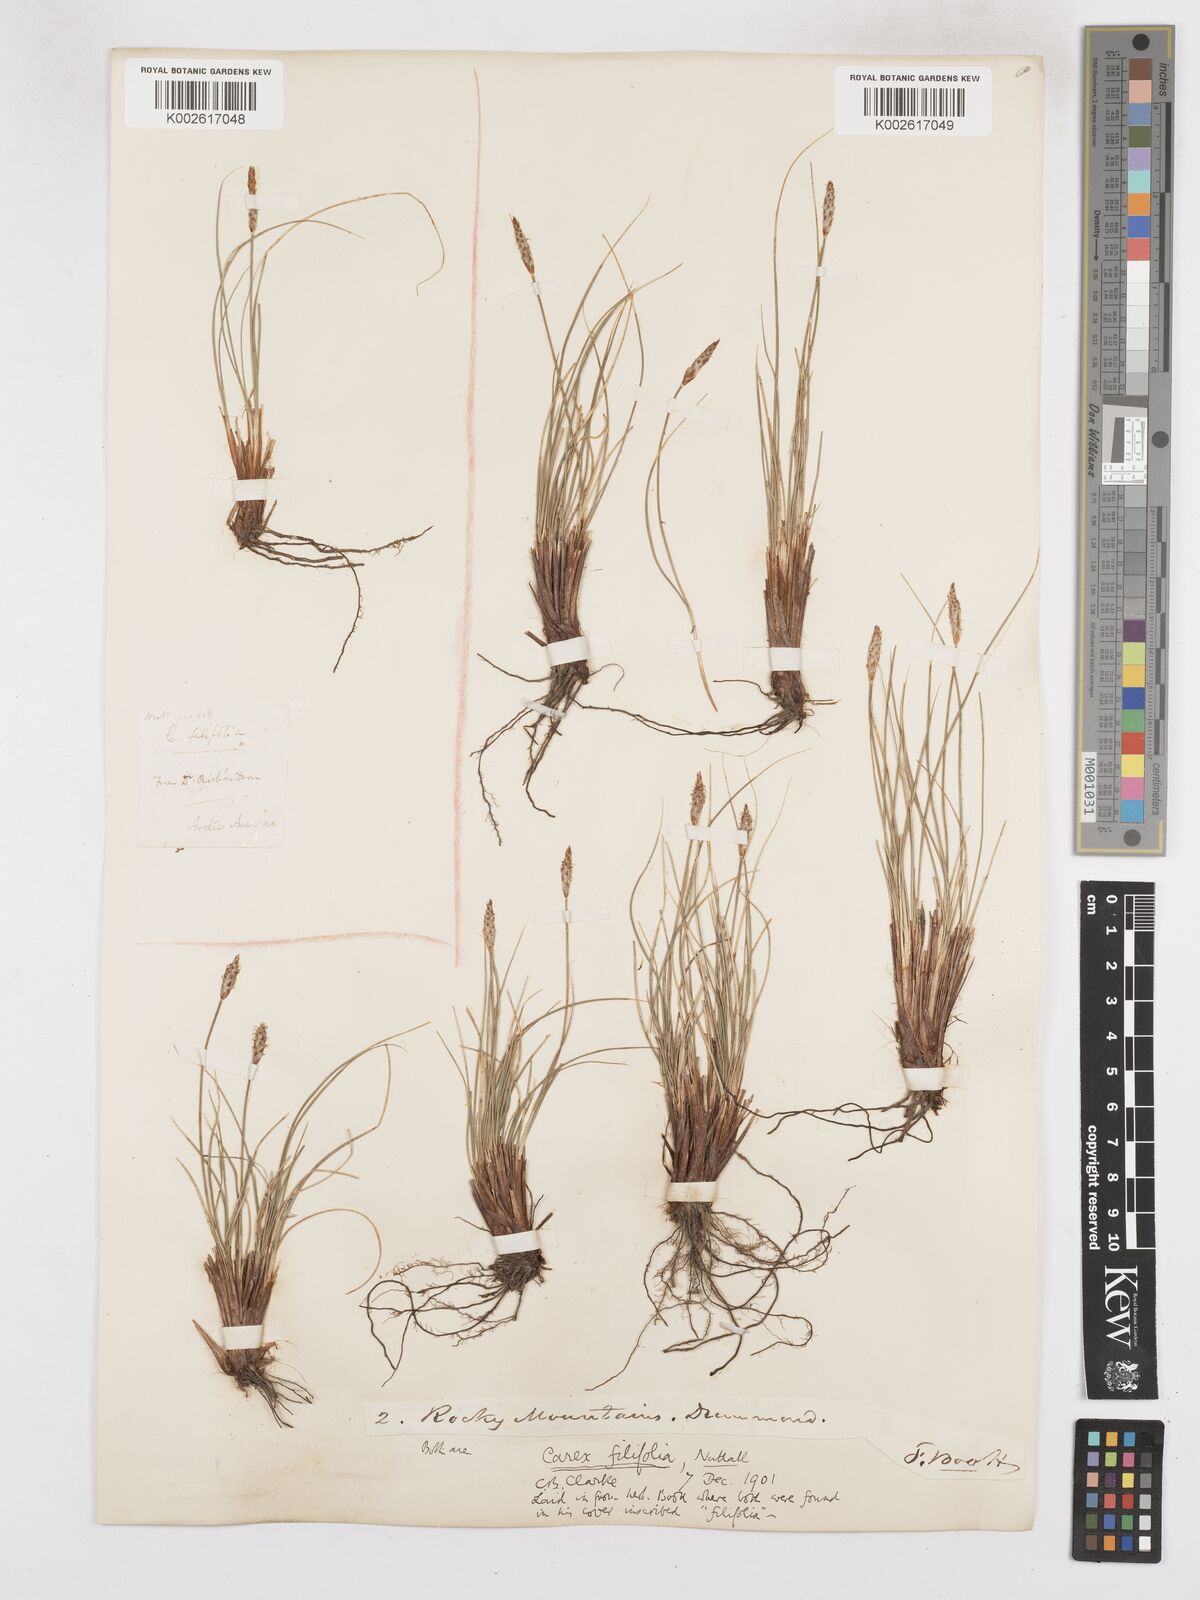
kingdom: Plantae
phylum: Tracheophyta
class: Liliopsida
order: Poales
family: Cyperaceae
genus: Carex
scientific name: Carex filifolia
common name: Threadleaf sedge
